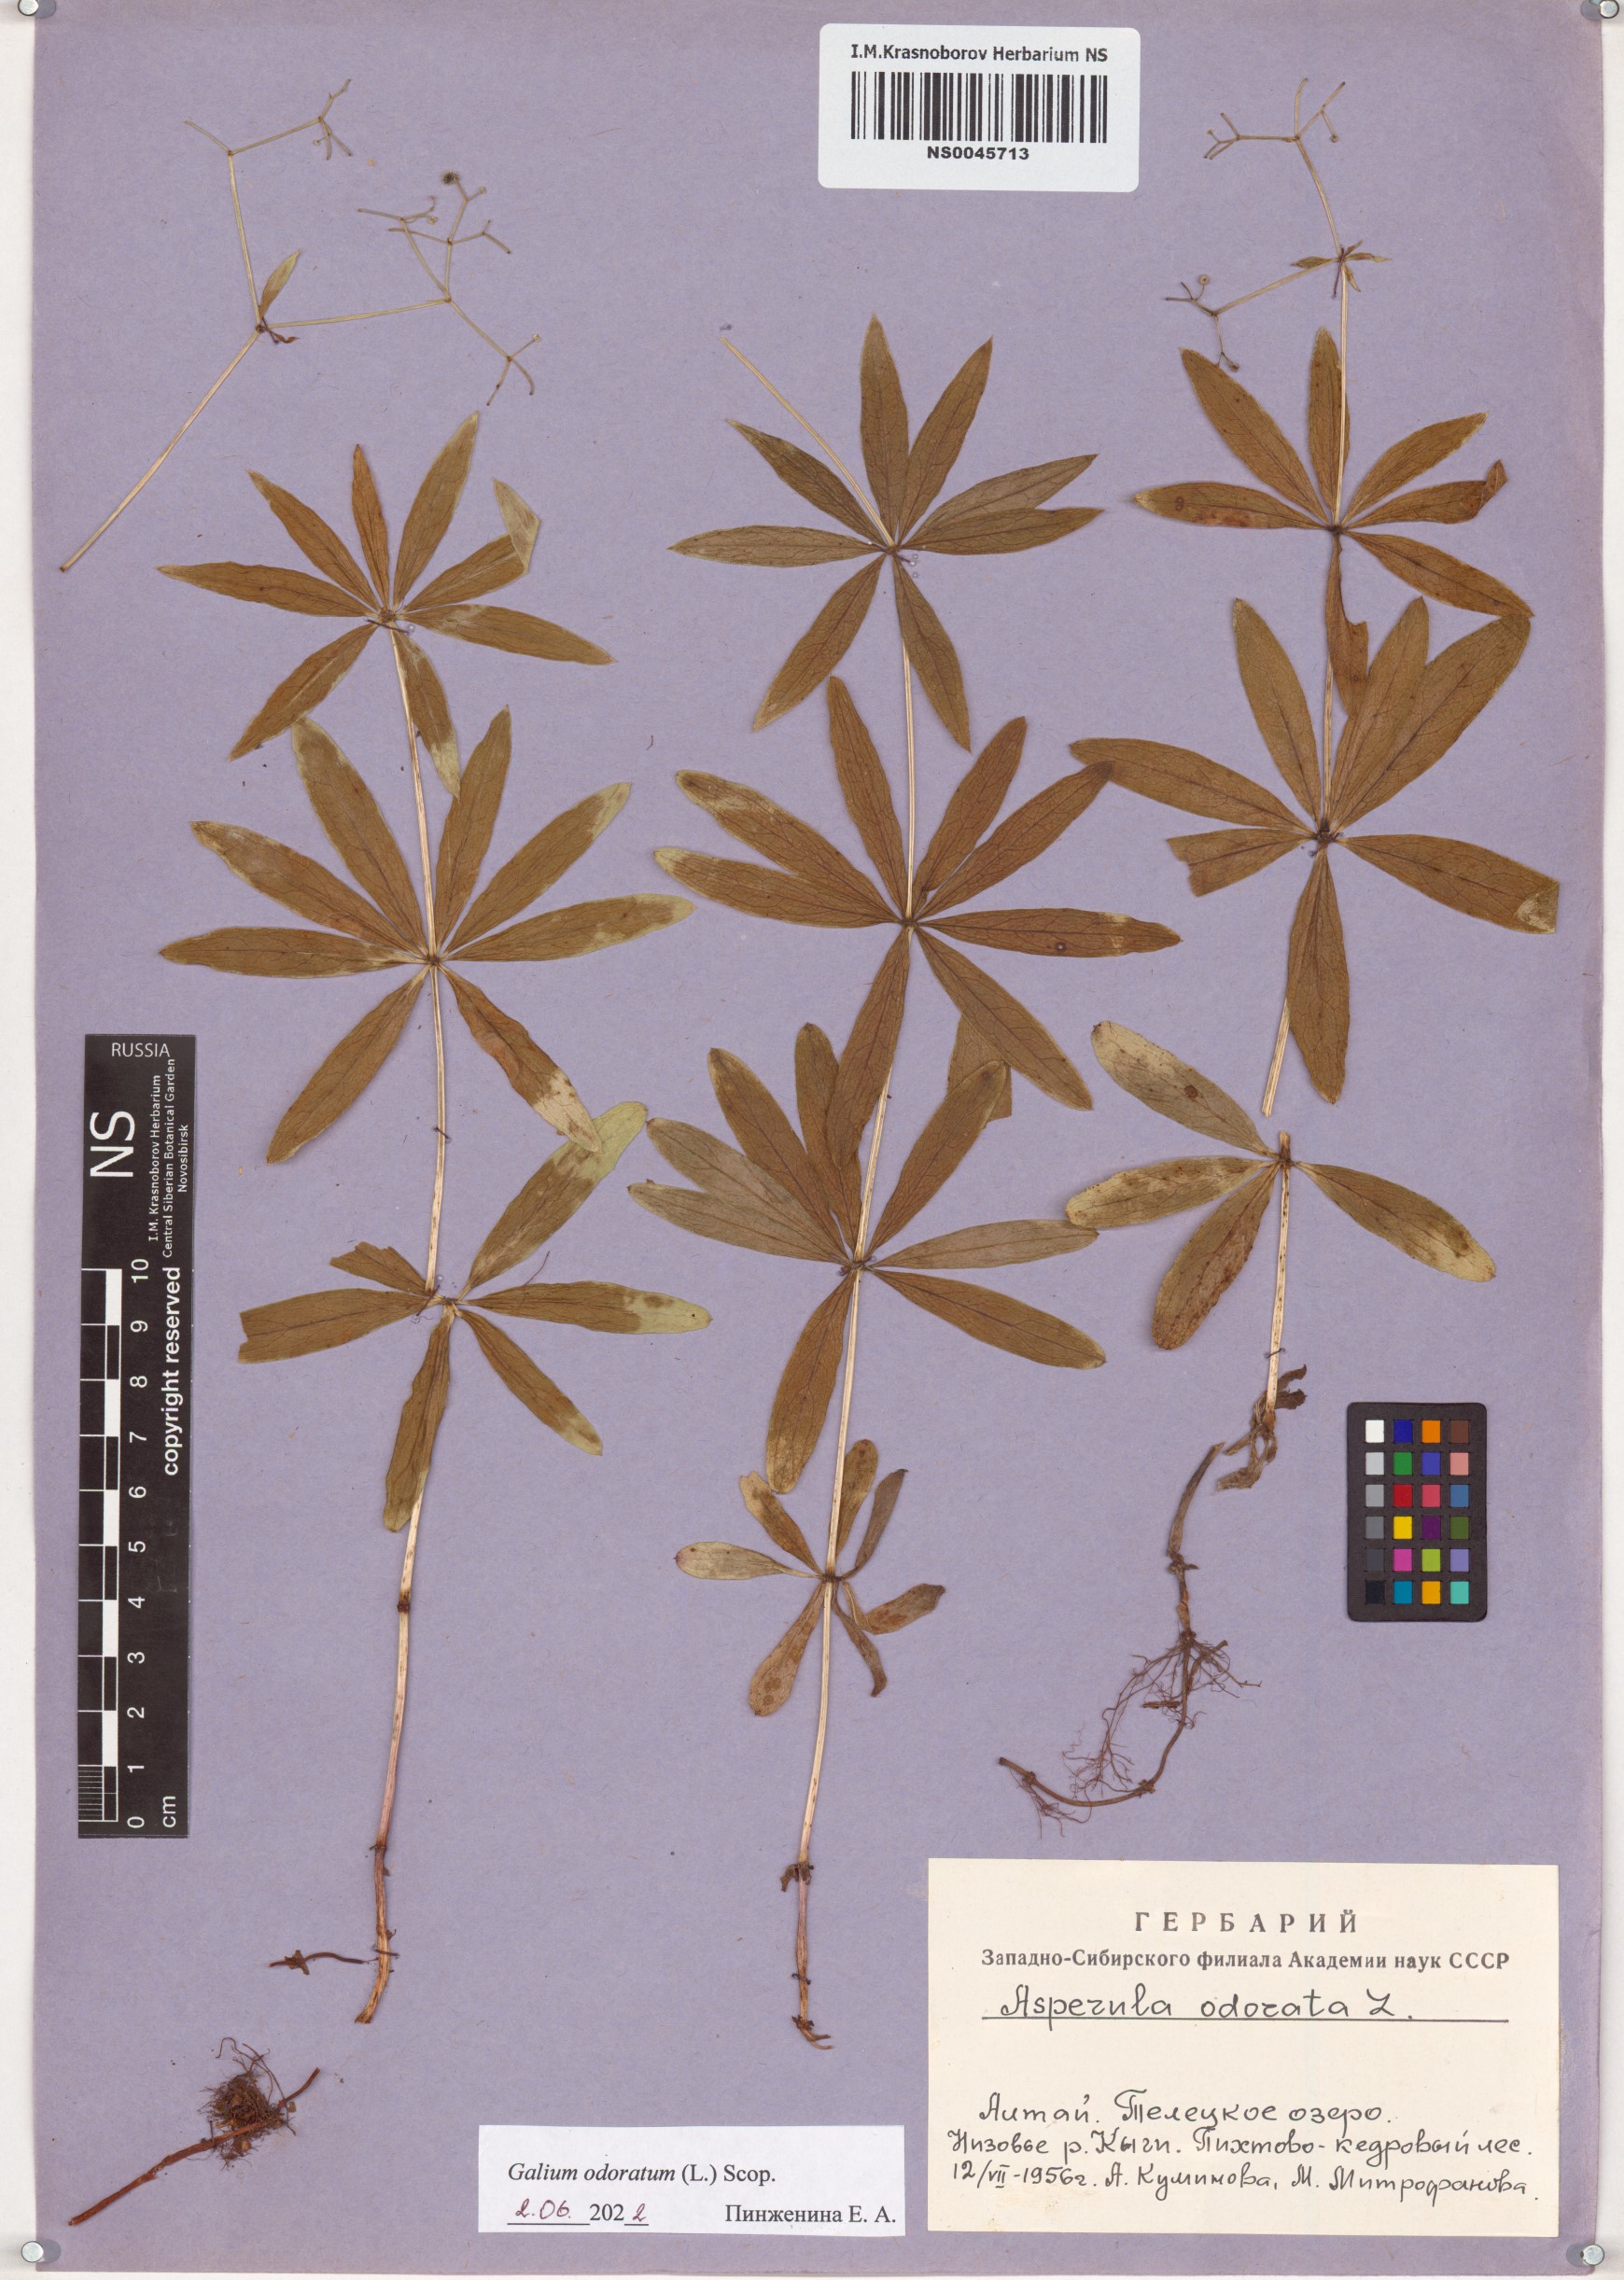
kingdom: Plantae
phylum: Tracheophyta
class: Magnoliopsida
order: Gentianales
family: Rubiaceae
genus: Galium
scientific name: Galium odoratum
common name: Sweet woodruff
